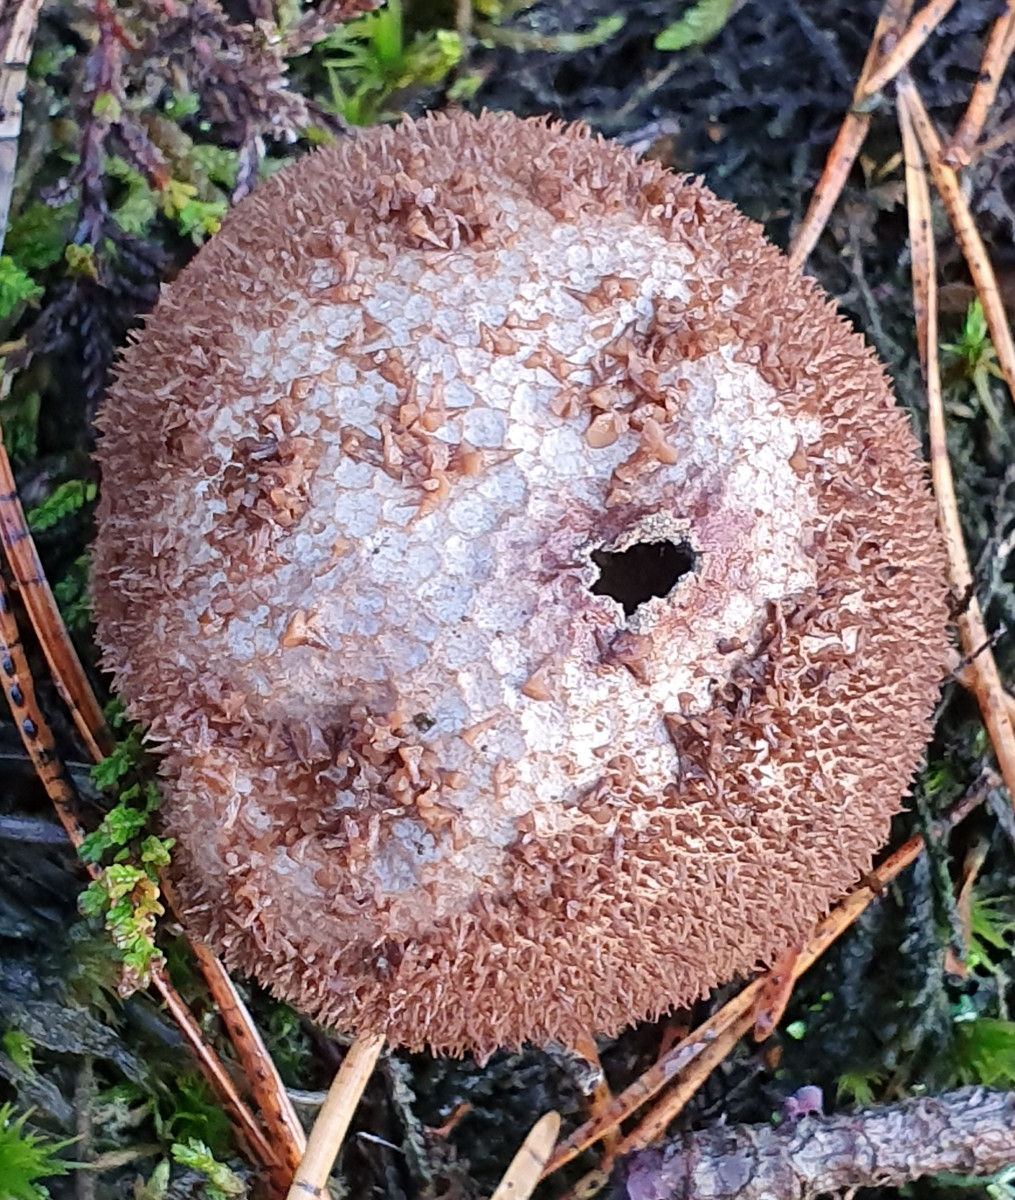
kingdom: Fungi
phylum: Basidiomycota
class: Agaricomycetes
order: Agaricales
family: Lycoperdaceae
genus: Lycoperdon
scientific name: Lycoperdon nigrescens
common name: sortagtig støvbold
